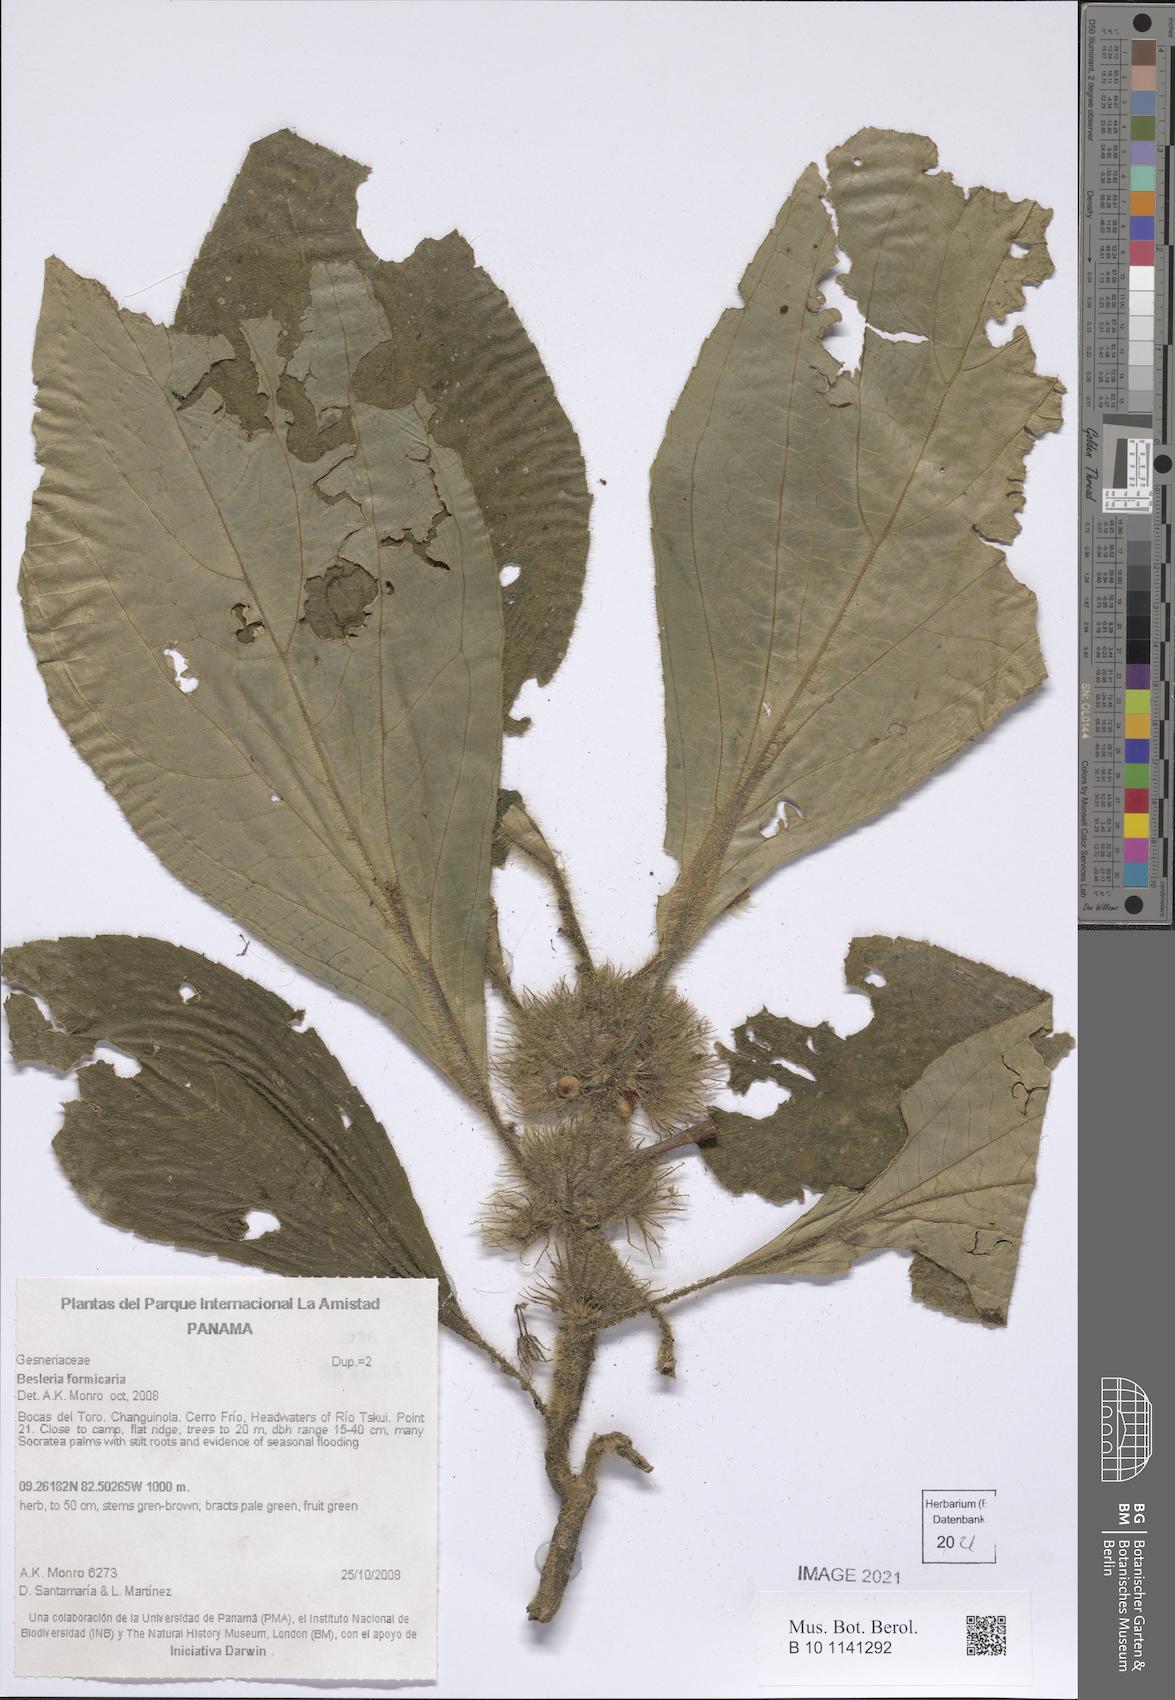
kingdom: Plantae
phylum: Tracheophyta
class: Magnoliopsida
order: Lamiales
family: Gesneriaceae
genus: Besleria
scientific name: Besleria formicaria
